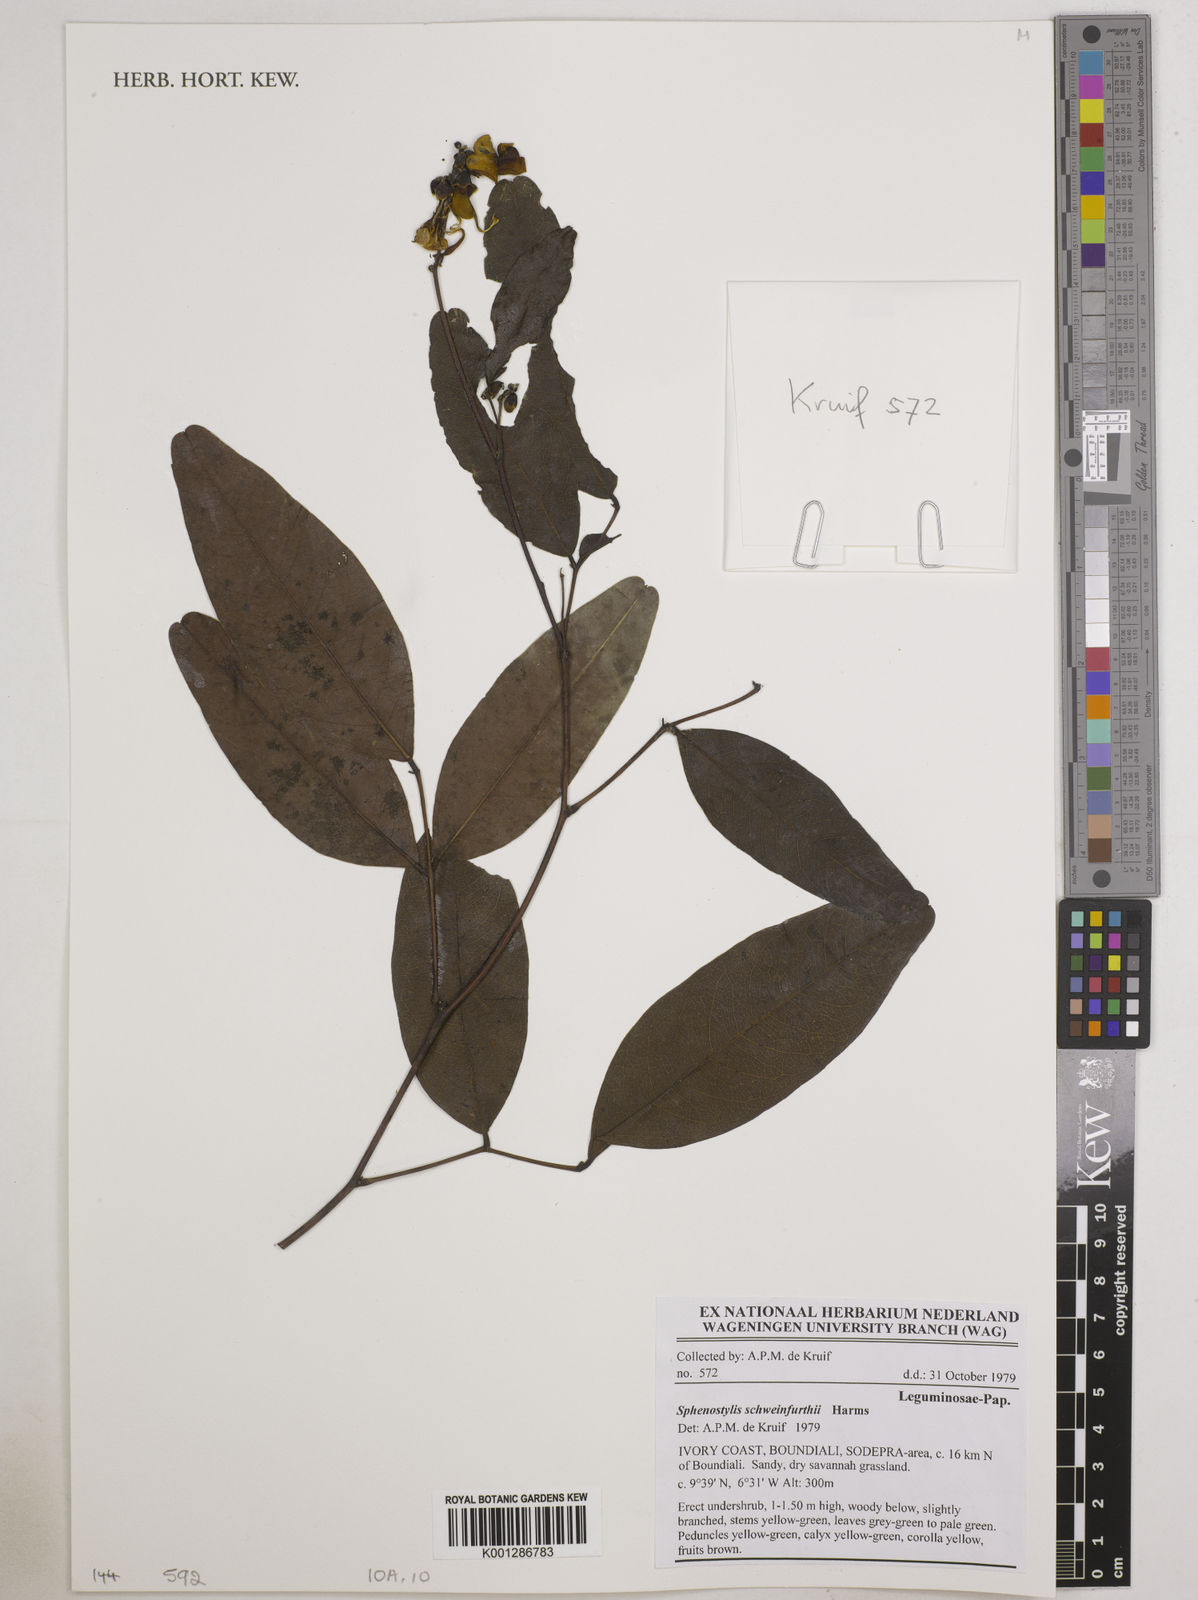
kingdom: Plantae
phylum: Tracheophyta
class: Magnoliopsida
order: Fabales
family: Fabaceae
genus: Sphenostylis
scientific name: Sphenostylis schweinfurthii
